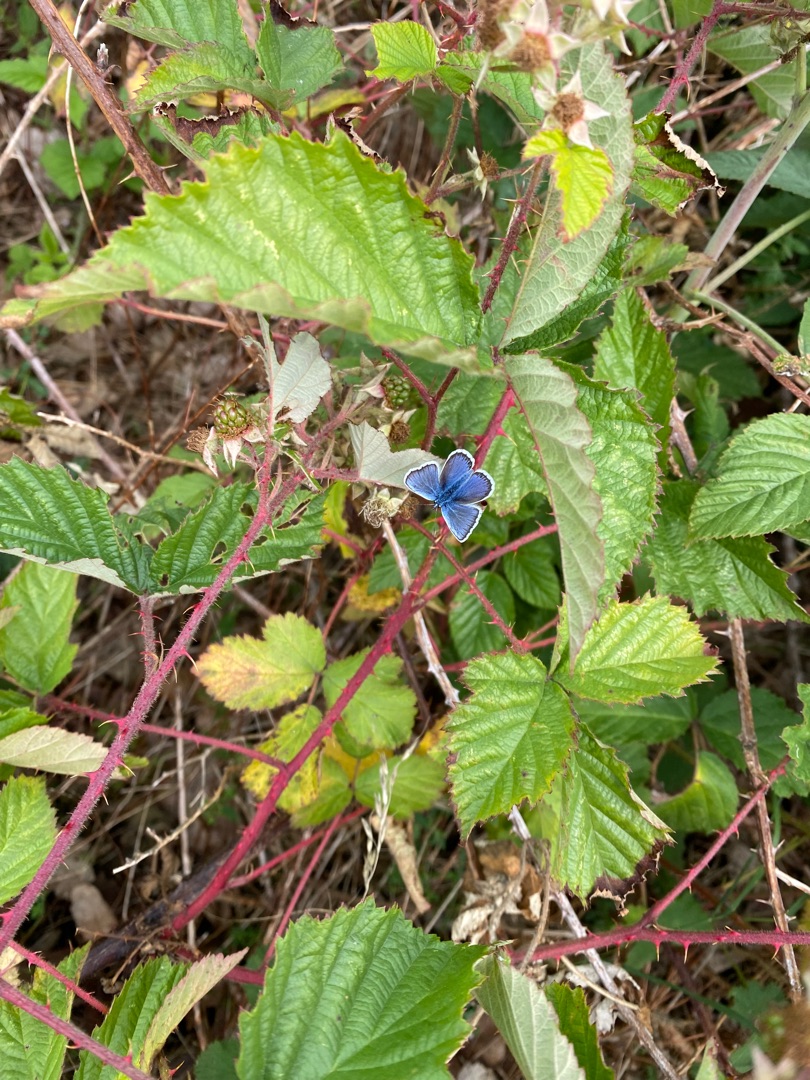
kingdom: Plantae
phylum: Tracheophyta
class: Magnoliopsida
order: Rosales
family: Rosaceae
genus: Rubus
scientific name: Rubus
